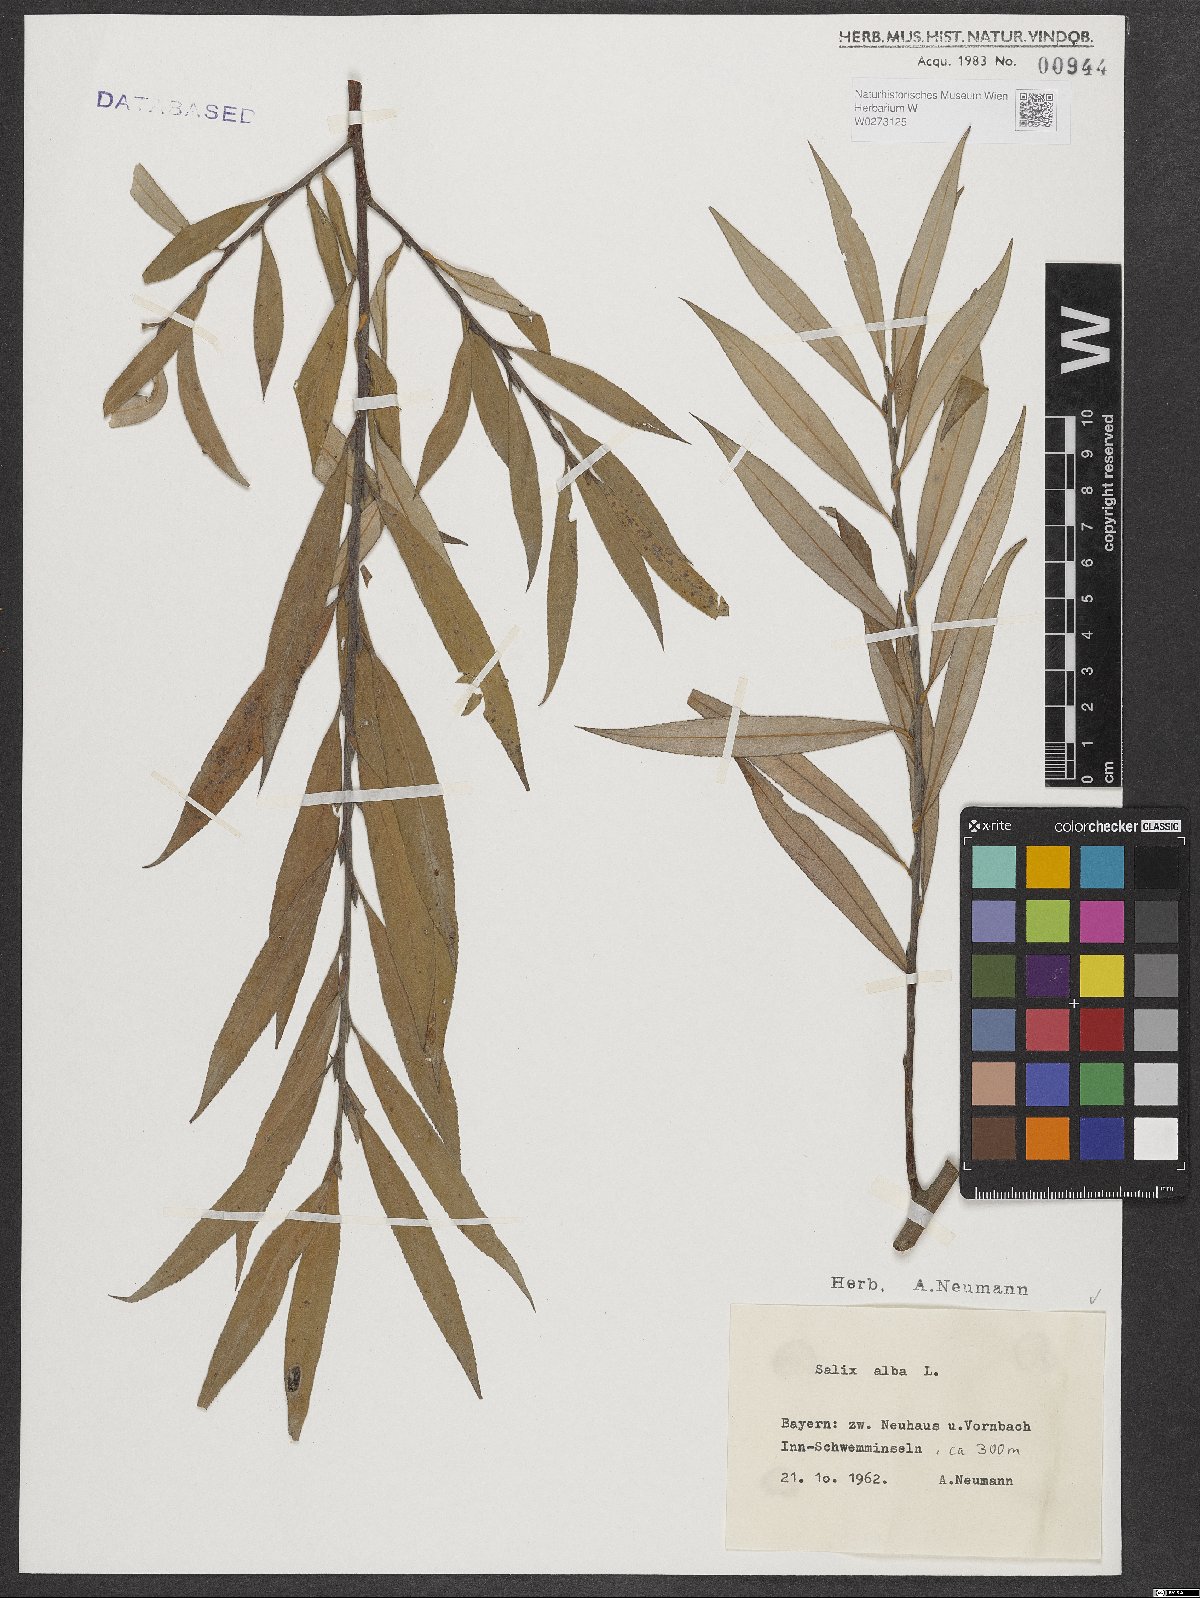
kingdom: Plantae
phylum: Tracheophyta
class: Magnoliopsida
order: Malpighiales
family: Salicaceae
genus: Salix
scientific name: Salix alba
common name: White willow
